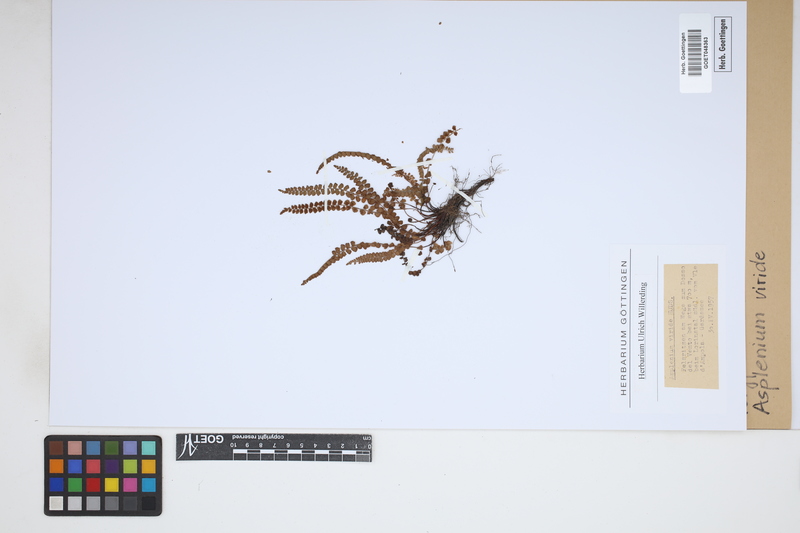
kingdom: Plantae
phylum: Tracheophyta
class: Polypodiopsida
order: Polypodiales
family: Aspleniaceae
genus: Asplenium
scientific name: Asplenium viride
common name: Green spleenwort
